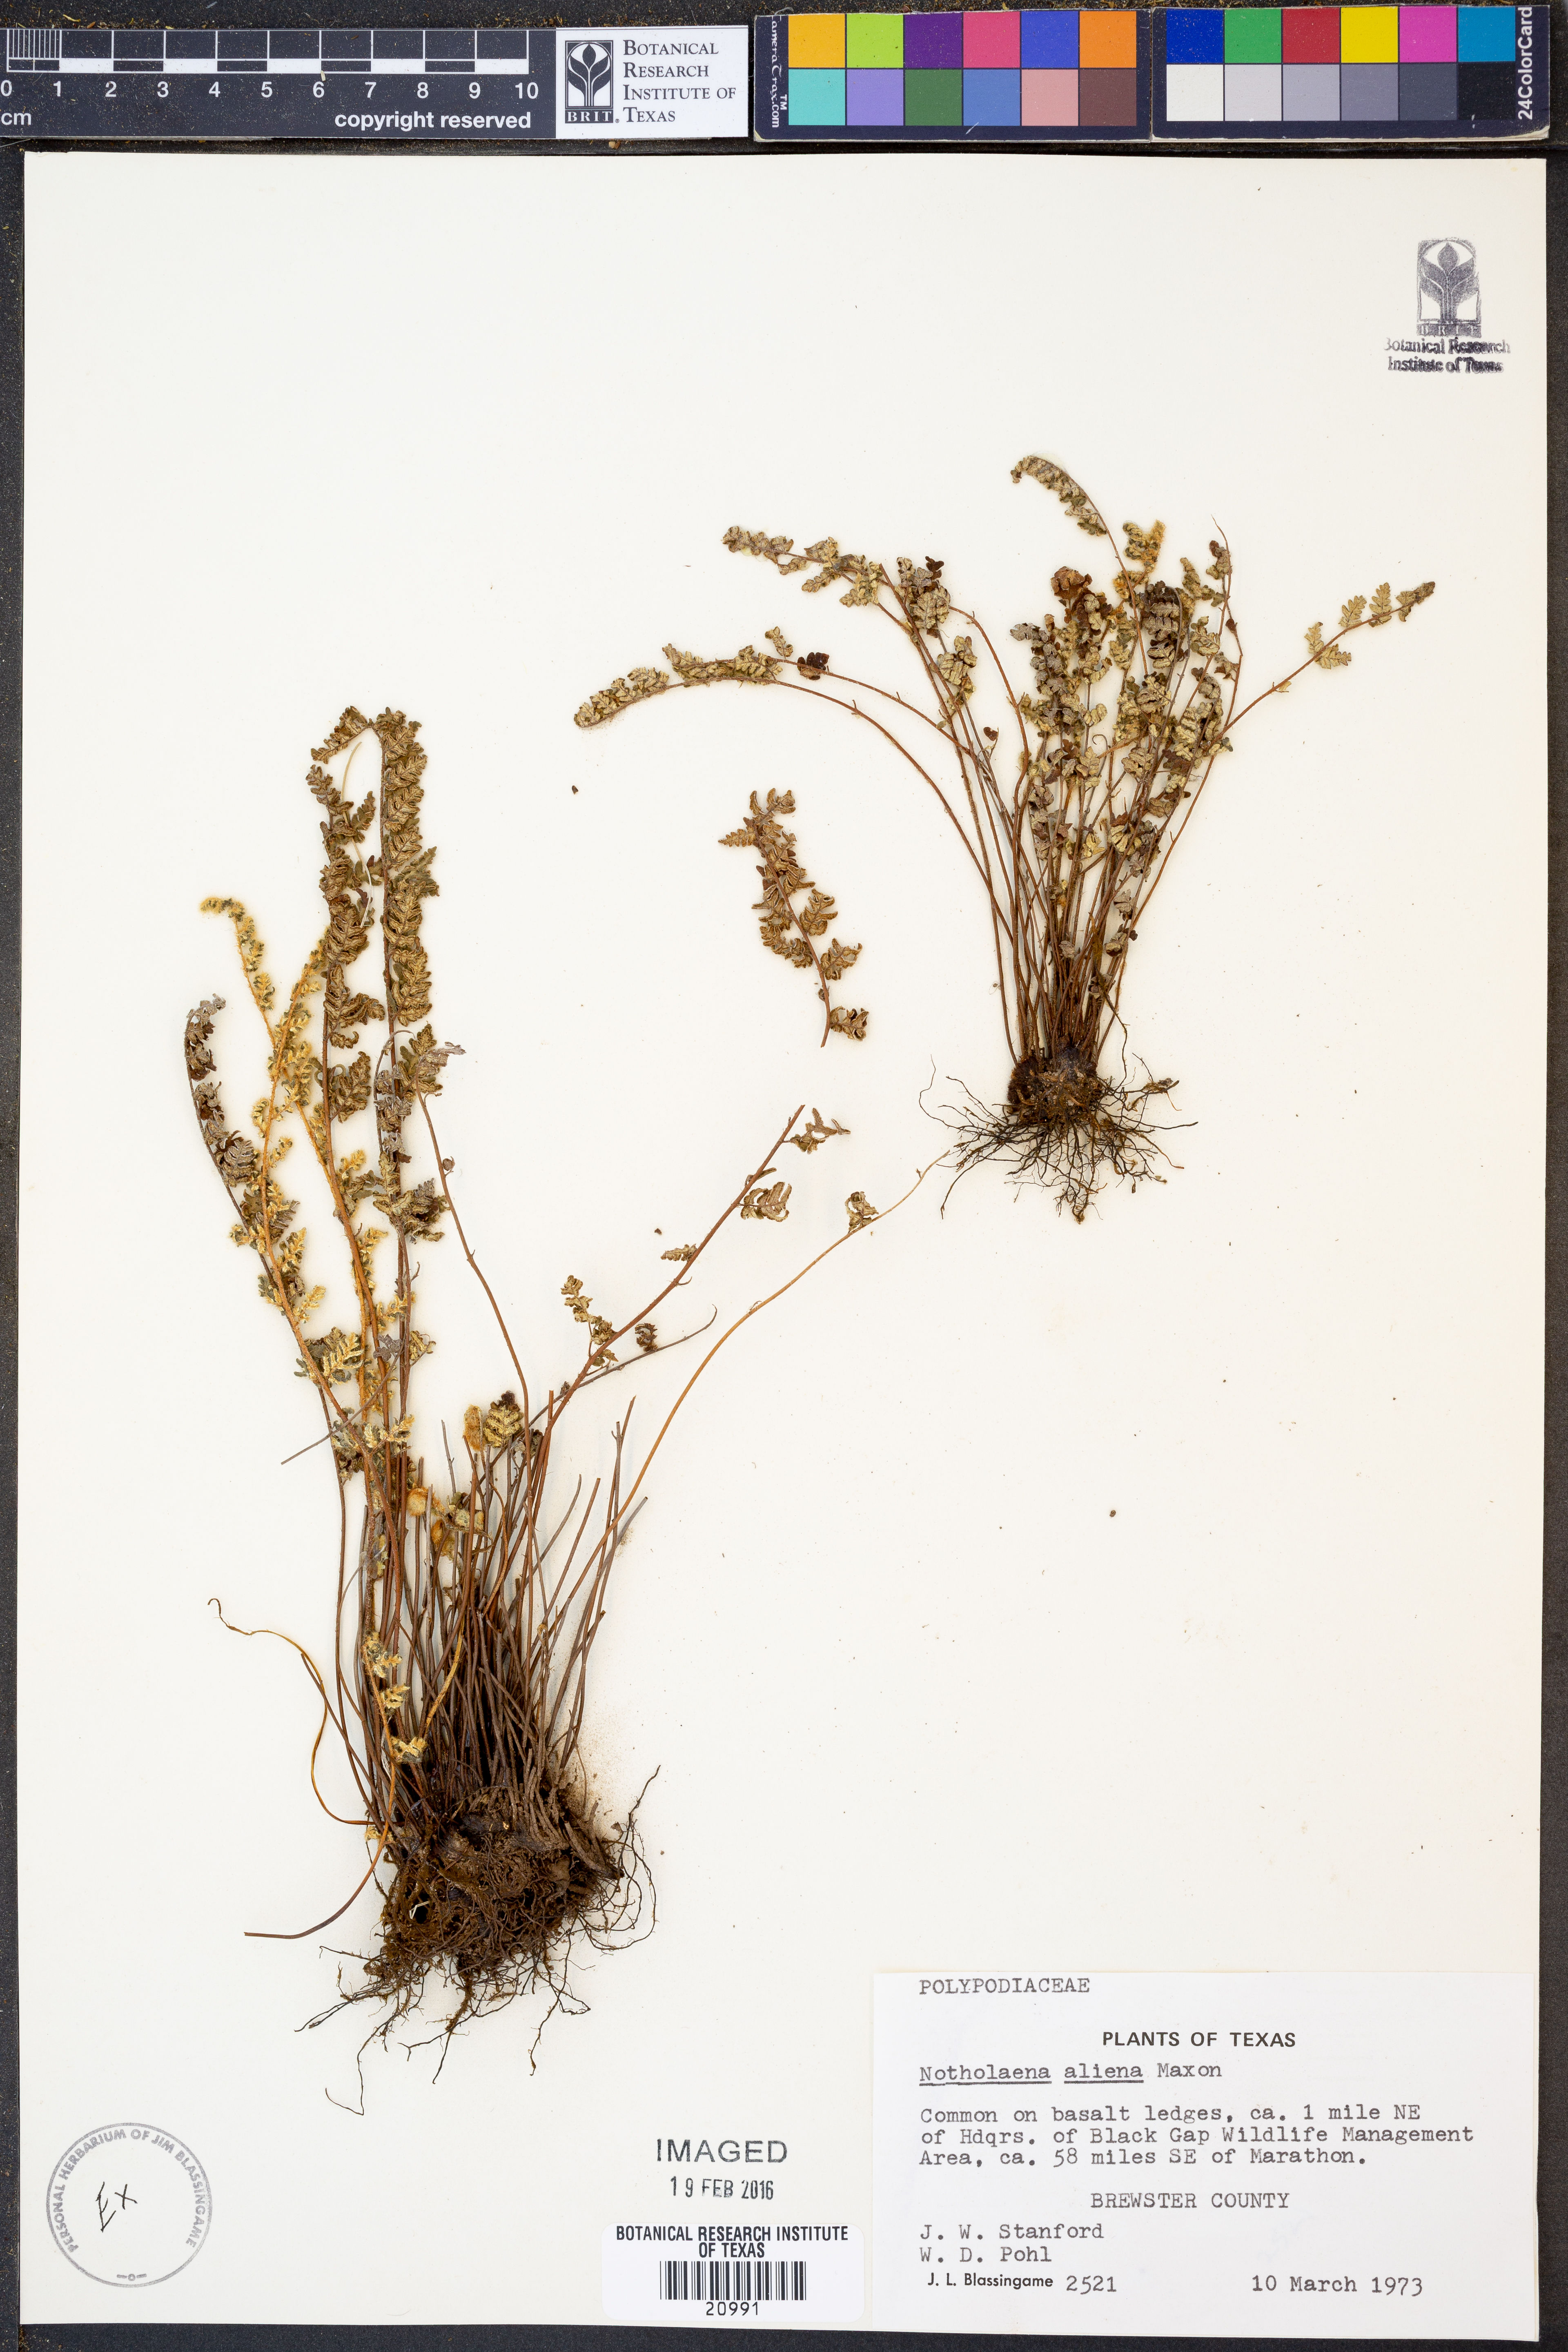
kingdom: Plantae
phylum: Tracheophyta
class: Polypodiopsida
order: Polypodiales
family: Pteridaceae
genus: Notholaena
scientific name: Notholaena aliena
